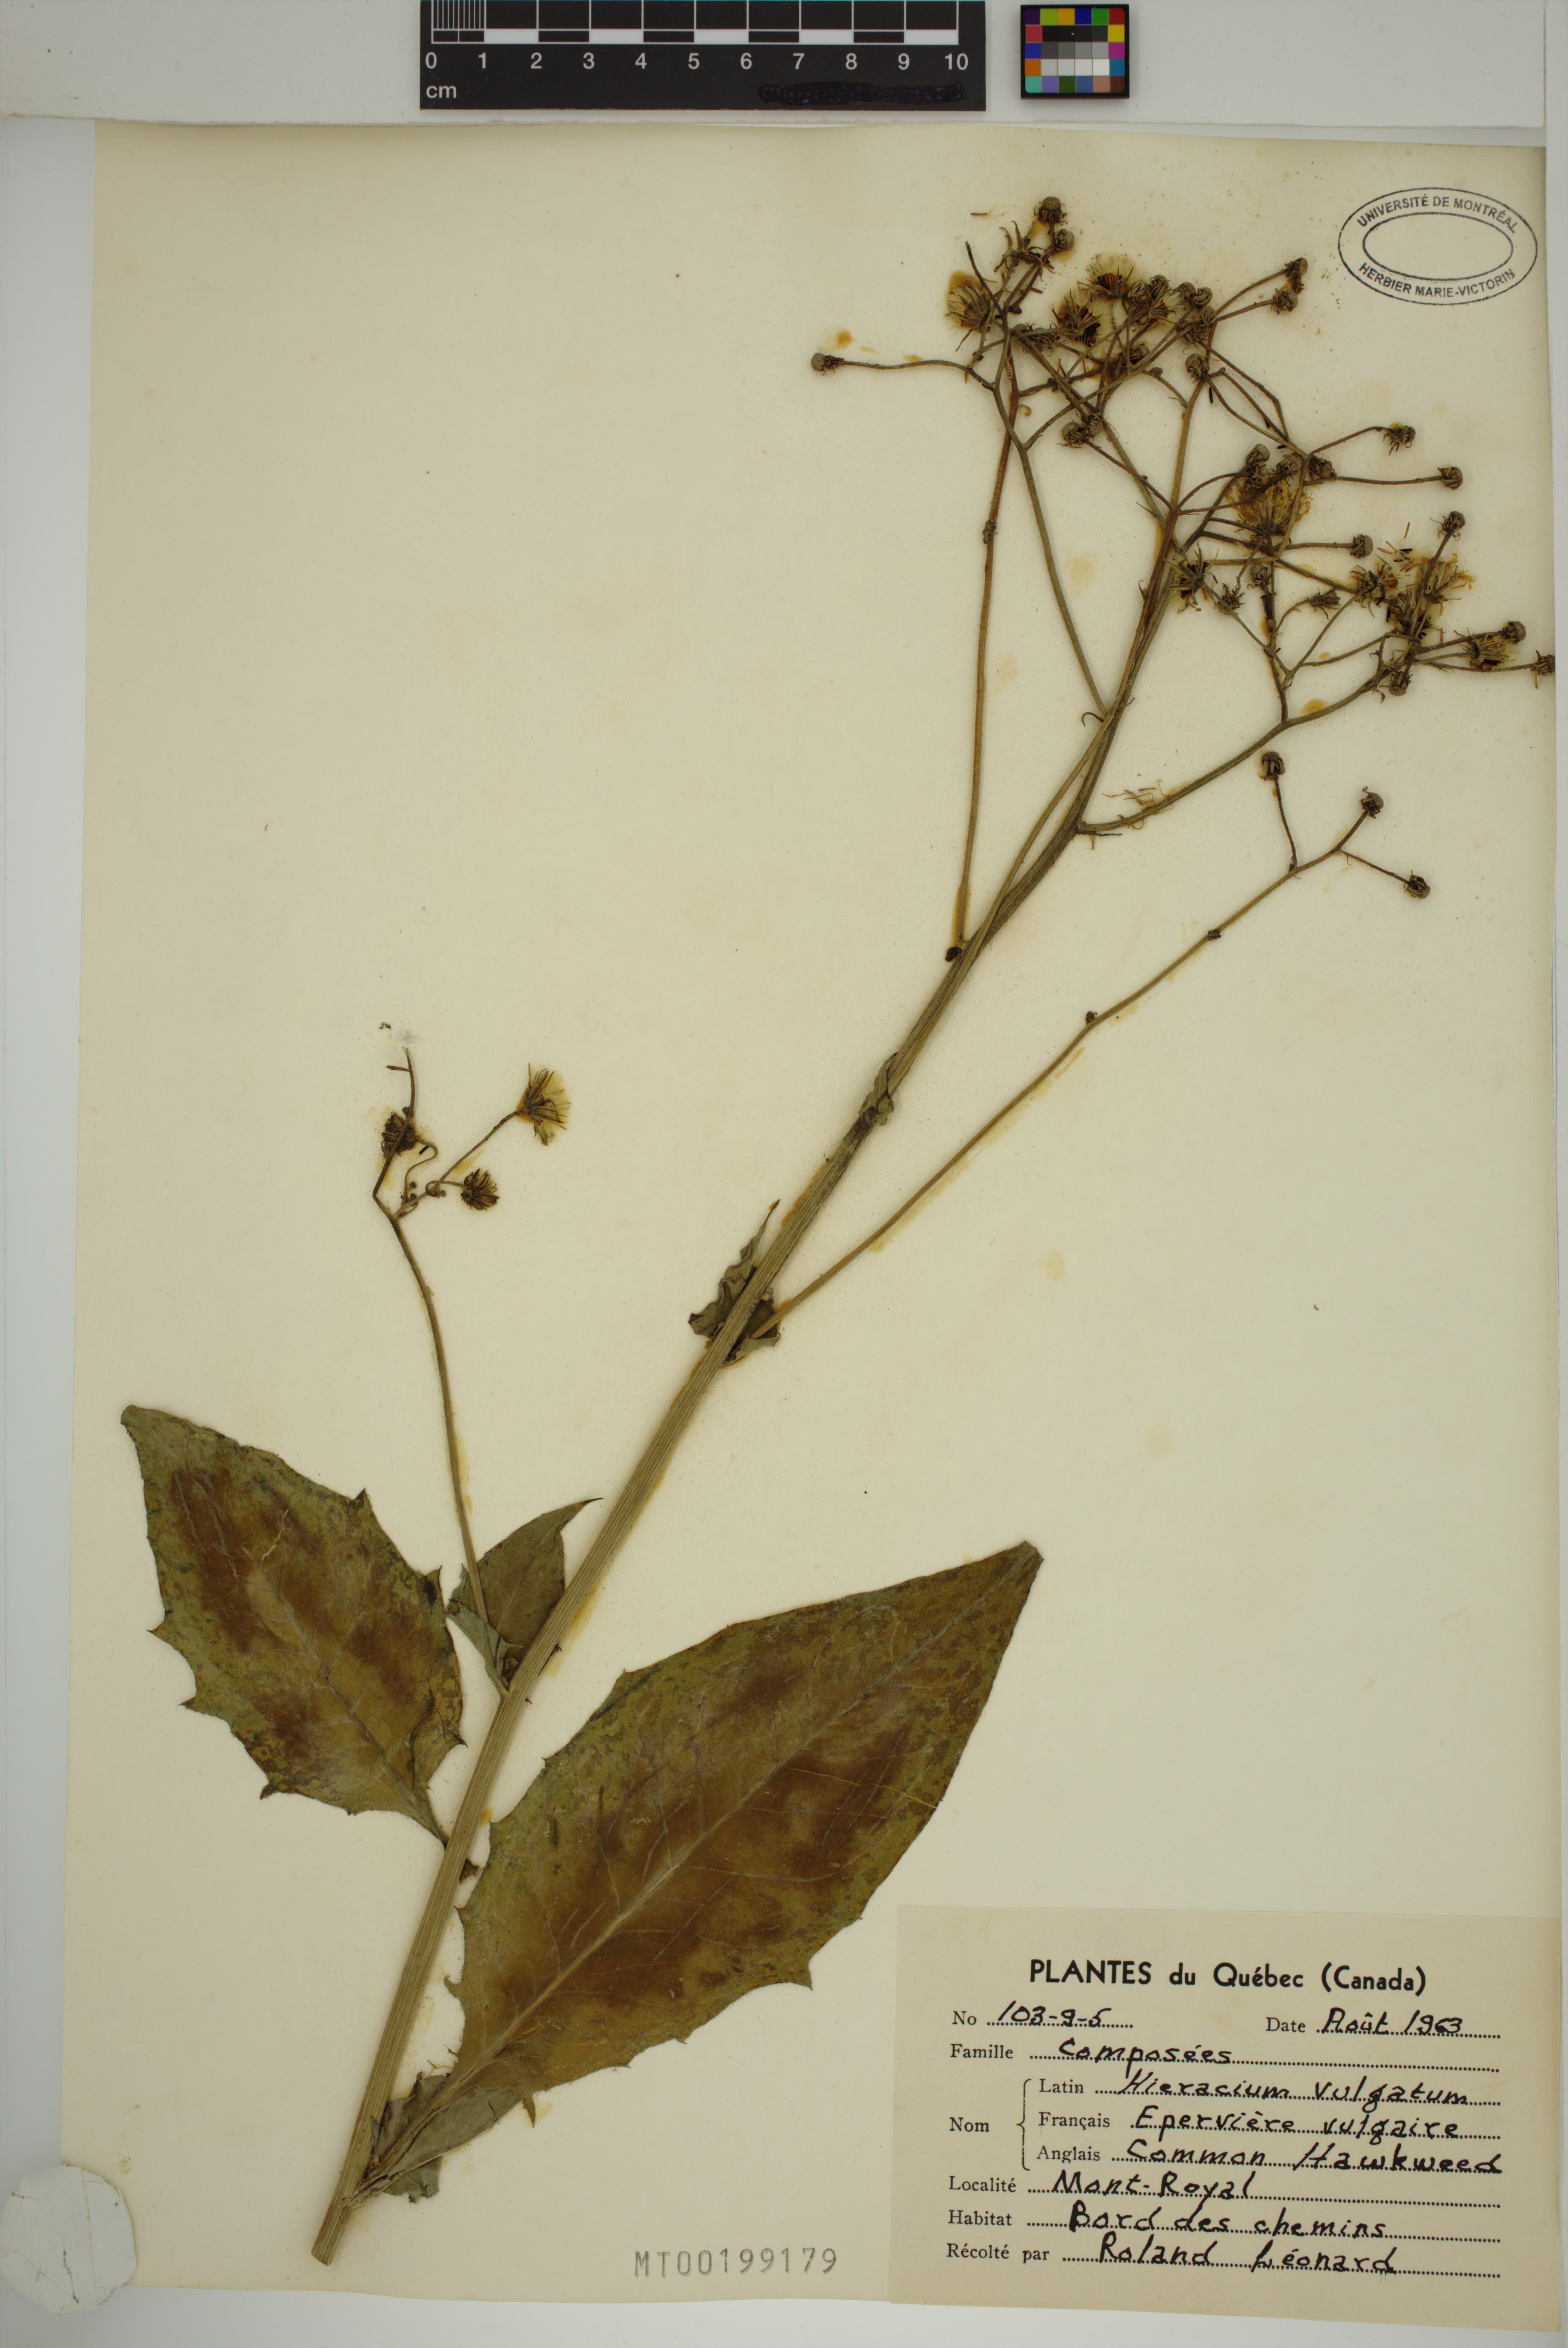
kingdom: Plantae
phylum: Tracheophyta
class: Magnoliopsida
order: Asterales
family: Asteraceae
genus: Hieracium
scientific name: Hieracium lachenalii
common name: Common hawkweed
